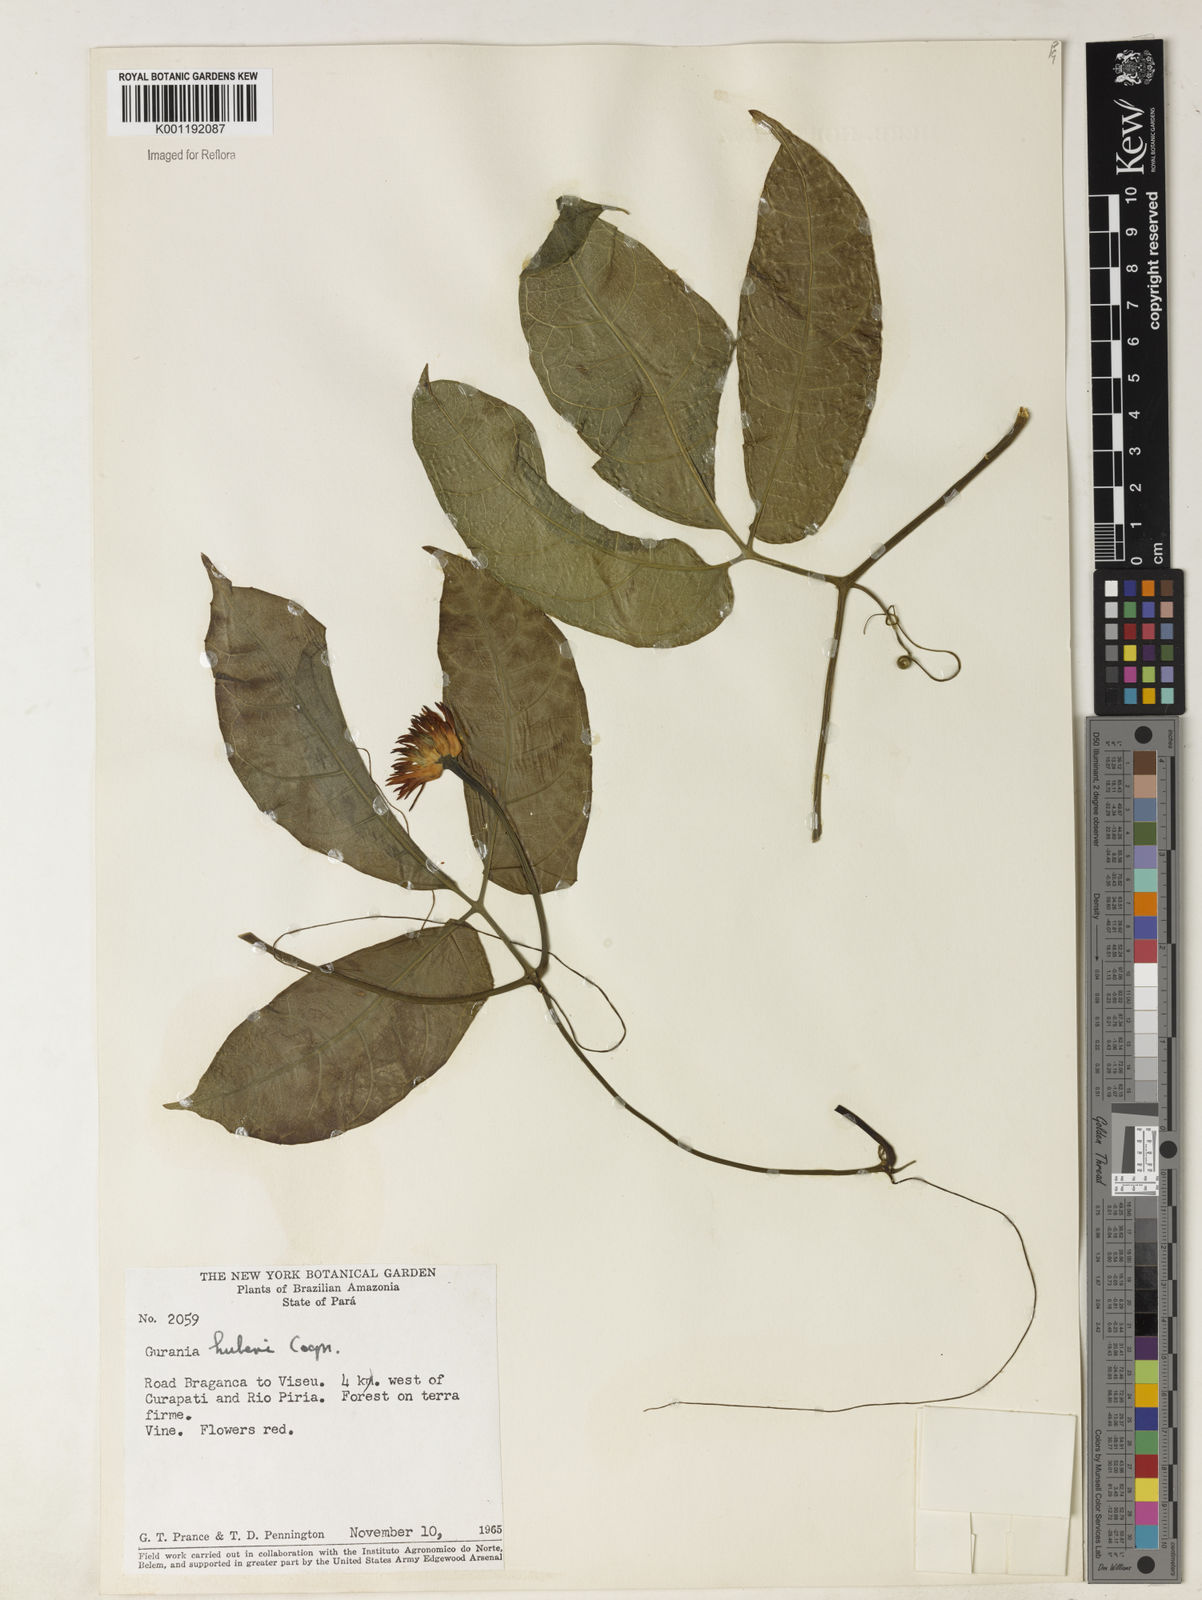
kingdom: Plantae
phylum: Tracheophyta
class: Magnoliopsida
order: Cucurbitales
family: Cucurbitaceae
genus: Gurania
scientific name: Gurania huberi
